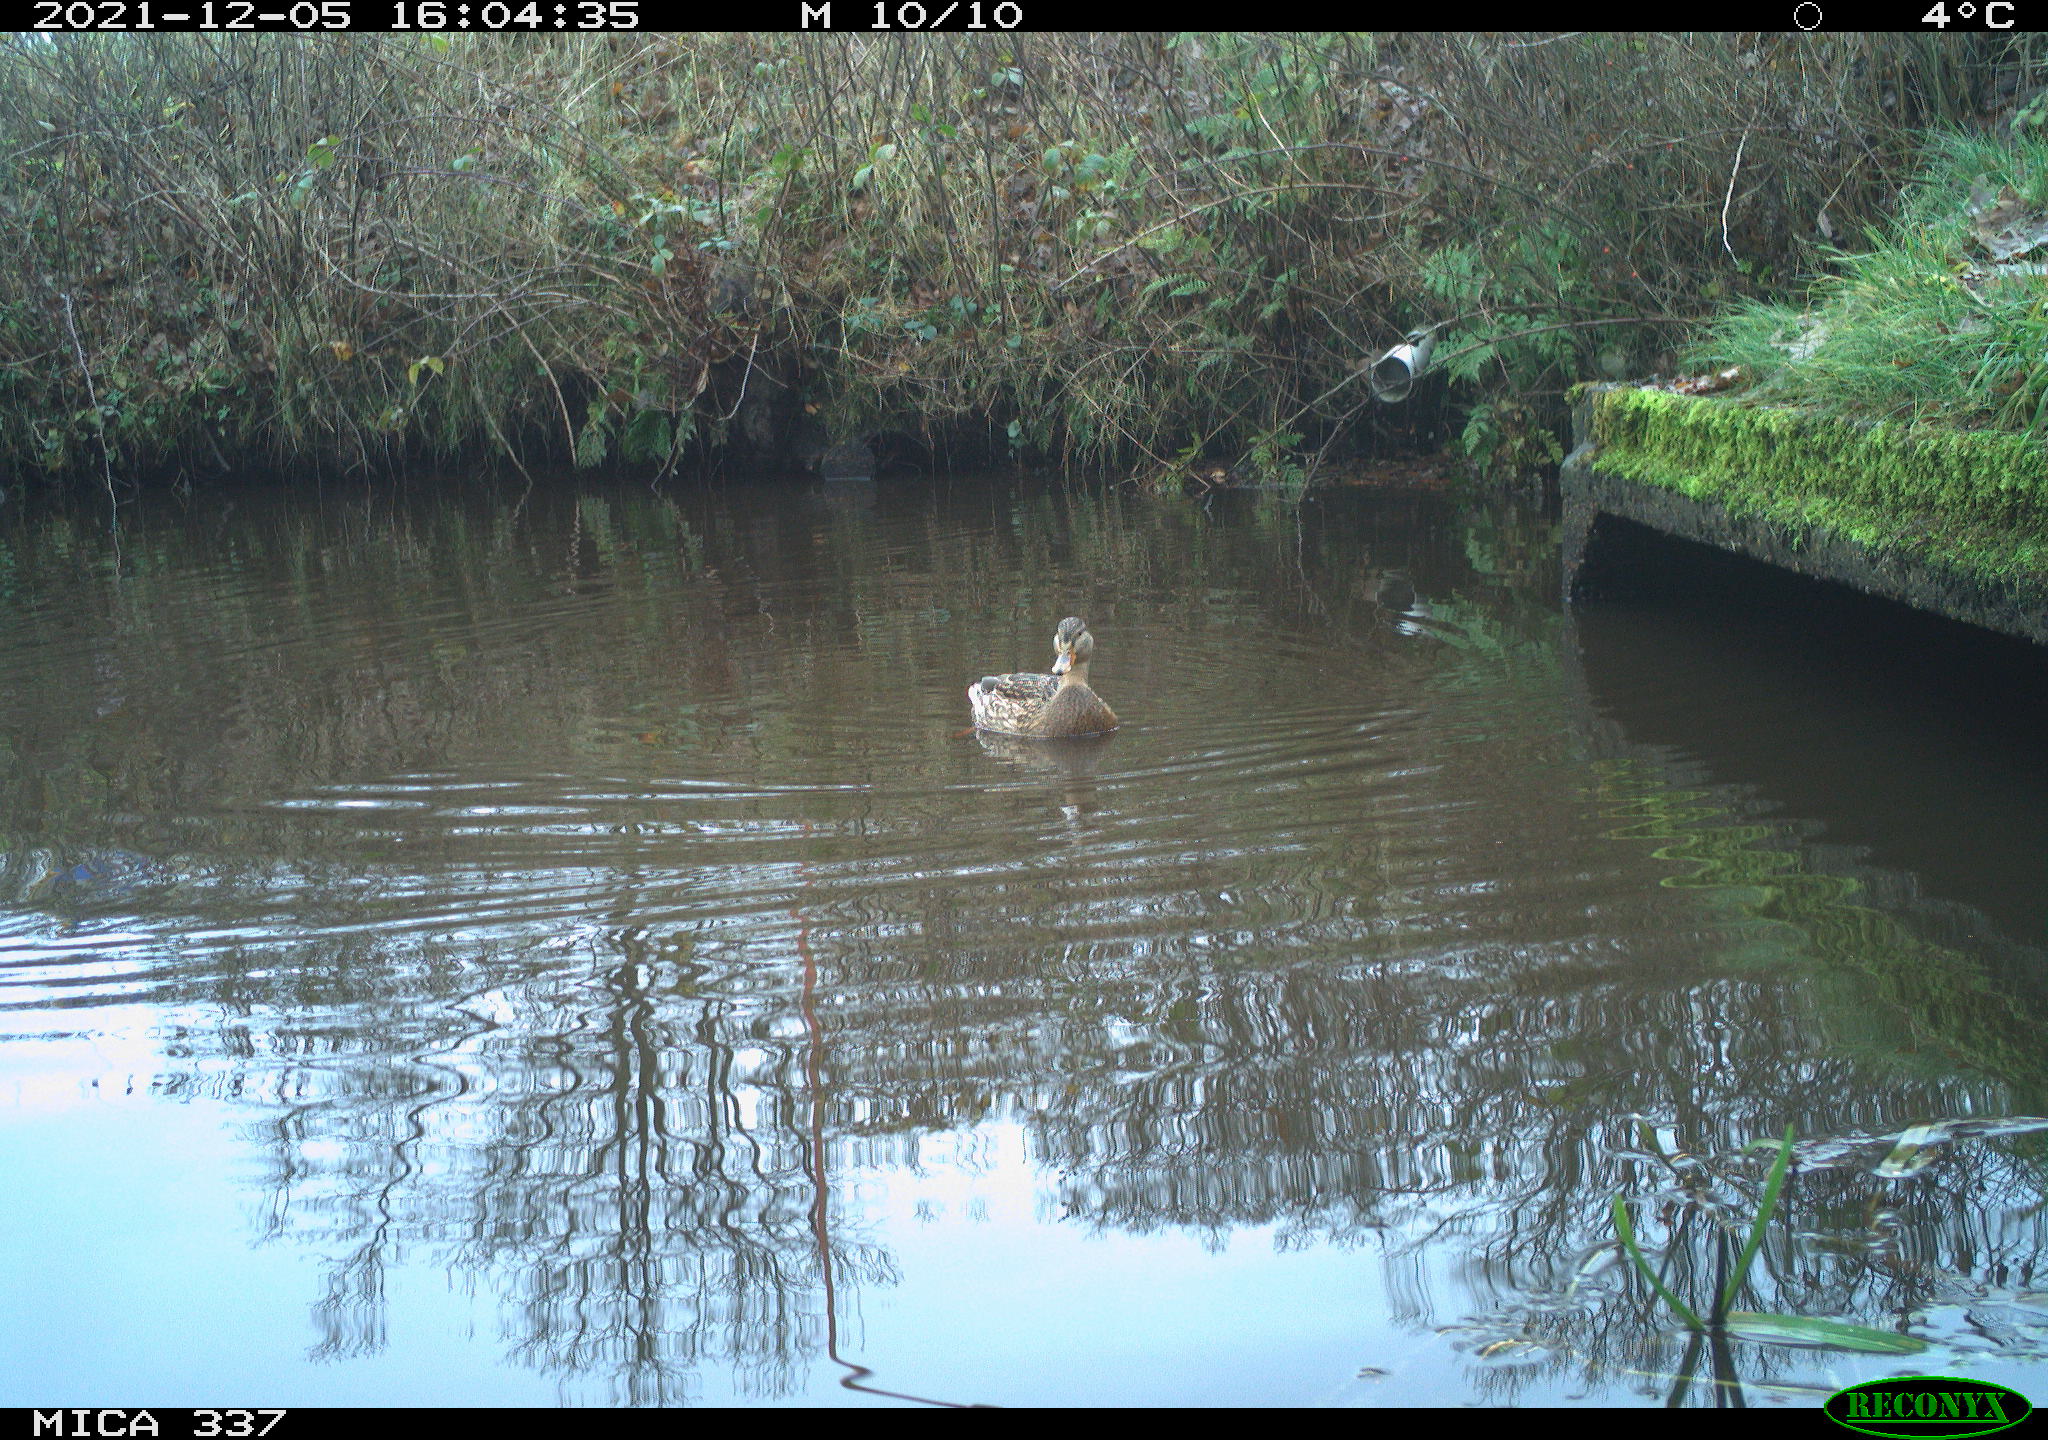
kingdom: Animalia
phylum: Chordata
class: Aves
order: Anseriformes
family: Anatidae
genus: Anas
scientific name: Anas platyrhynchos
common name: Mallard
